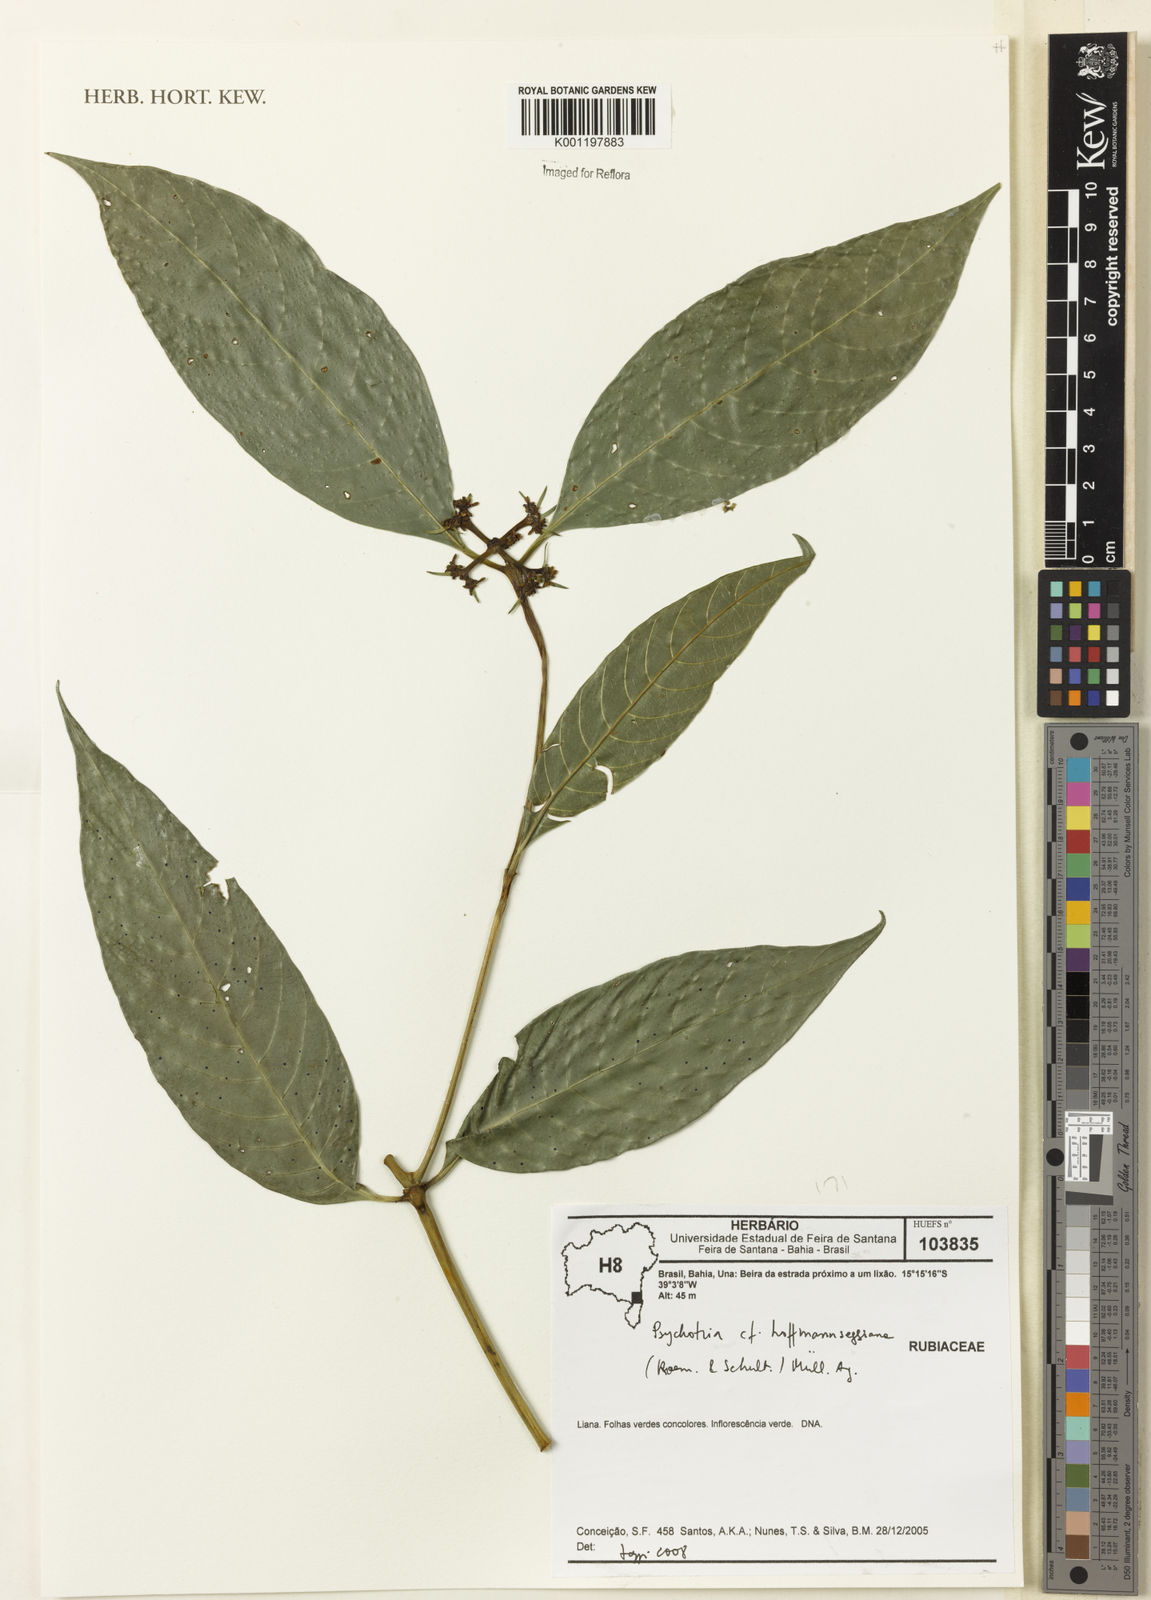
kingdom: Plantae
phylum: Tracheophyta
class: Magnoliopsida
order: Gentianales
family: Rubiaceae
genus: Psychotria
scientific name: Psychotria
